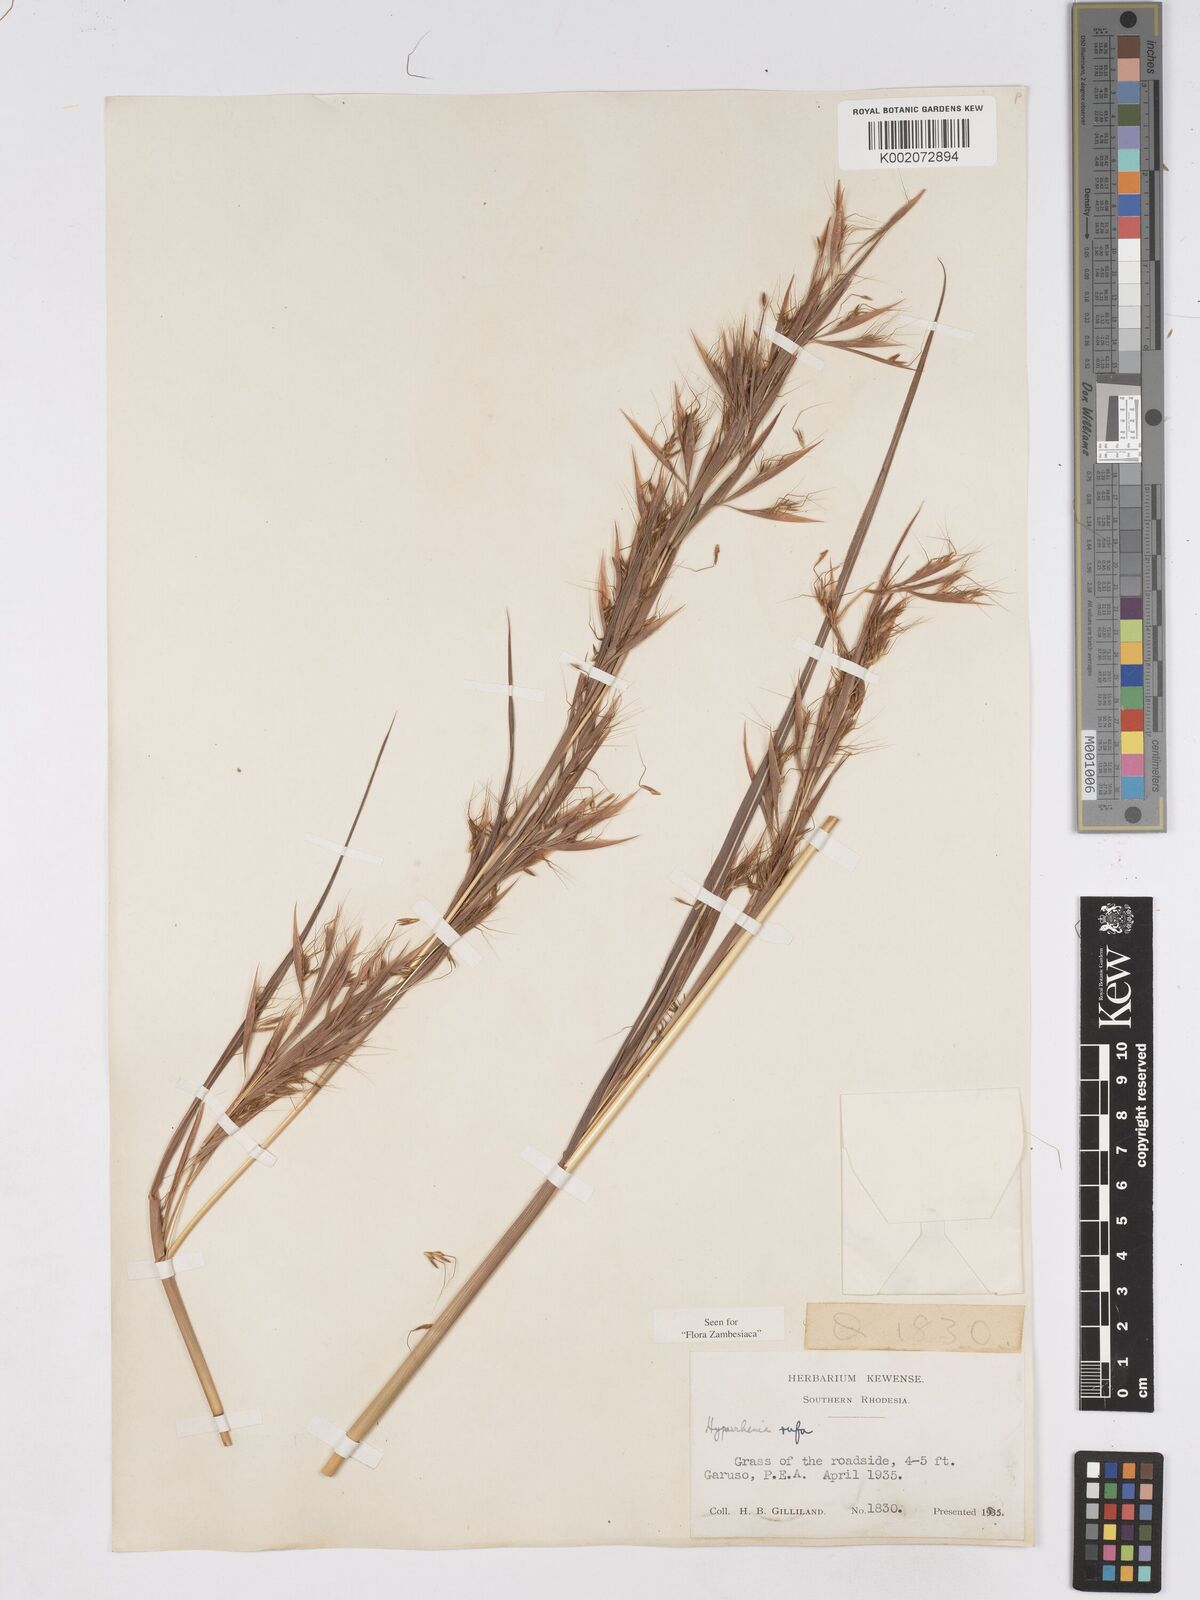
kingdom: Plantae
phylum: Tracheophyta
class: Liliopsida
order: Poales
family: Poaceae
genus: Hyparrhenia
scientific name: Hyparrhenia rufa
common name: Jaraguagrass
